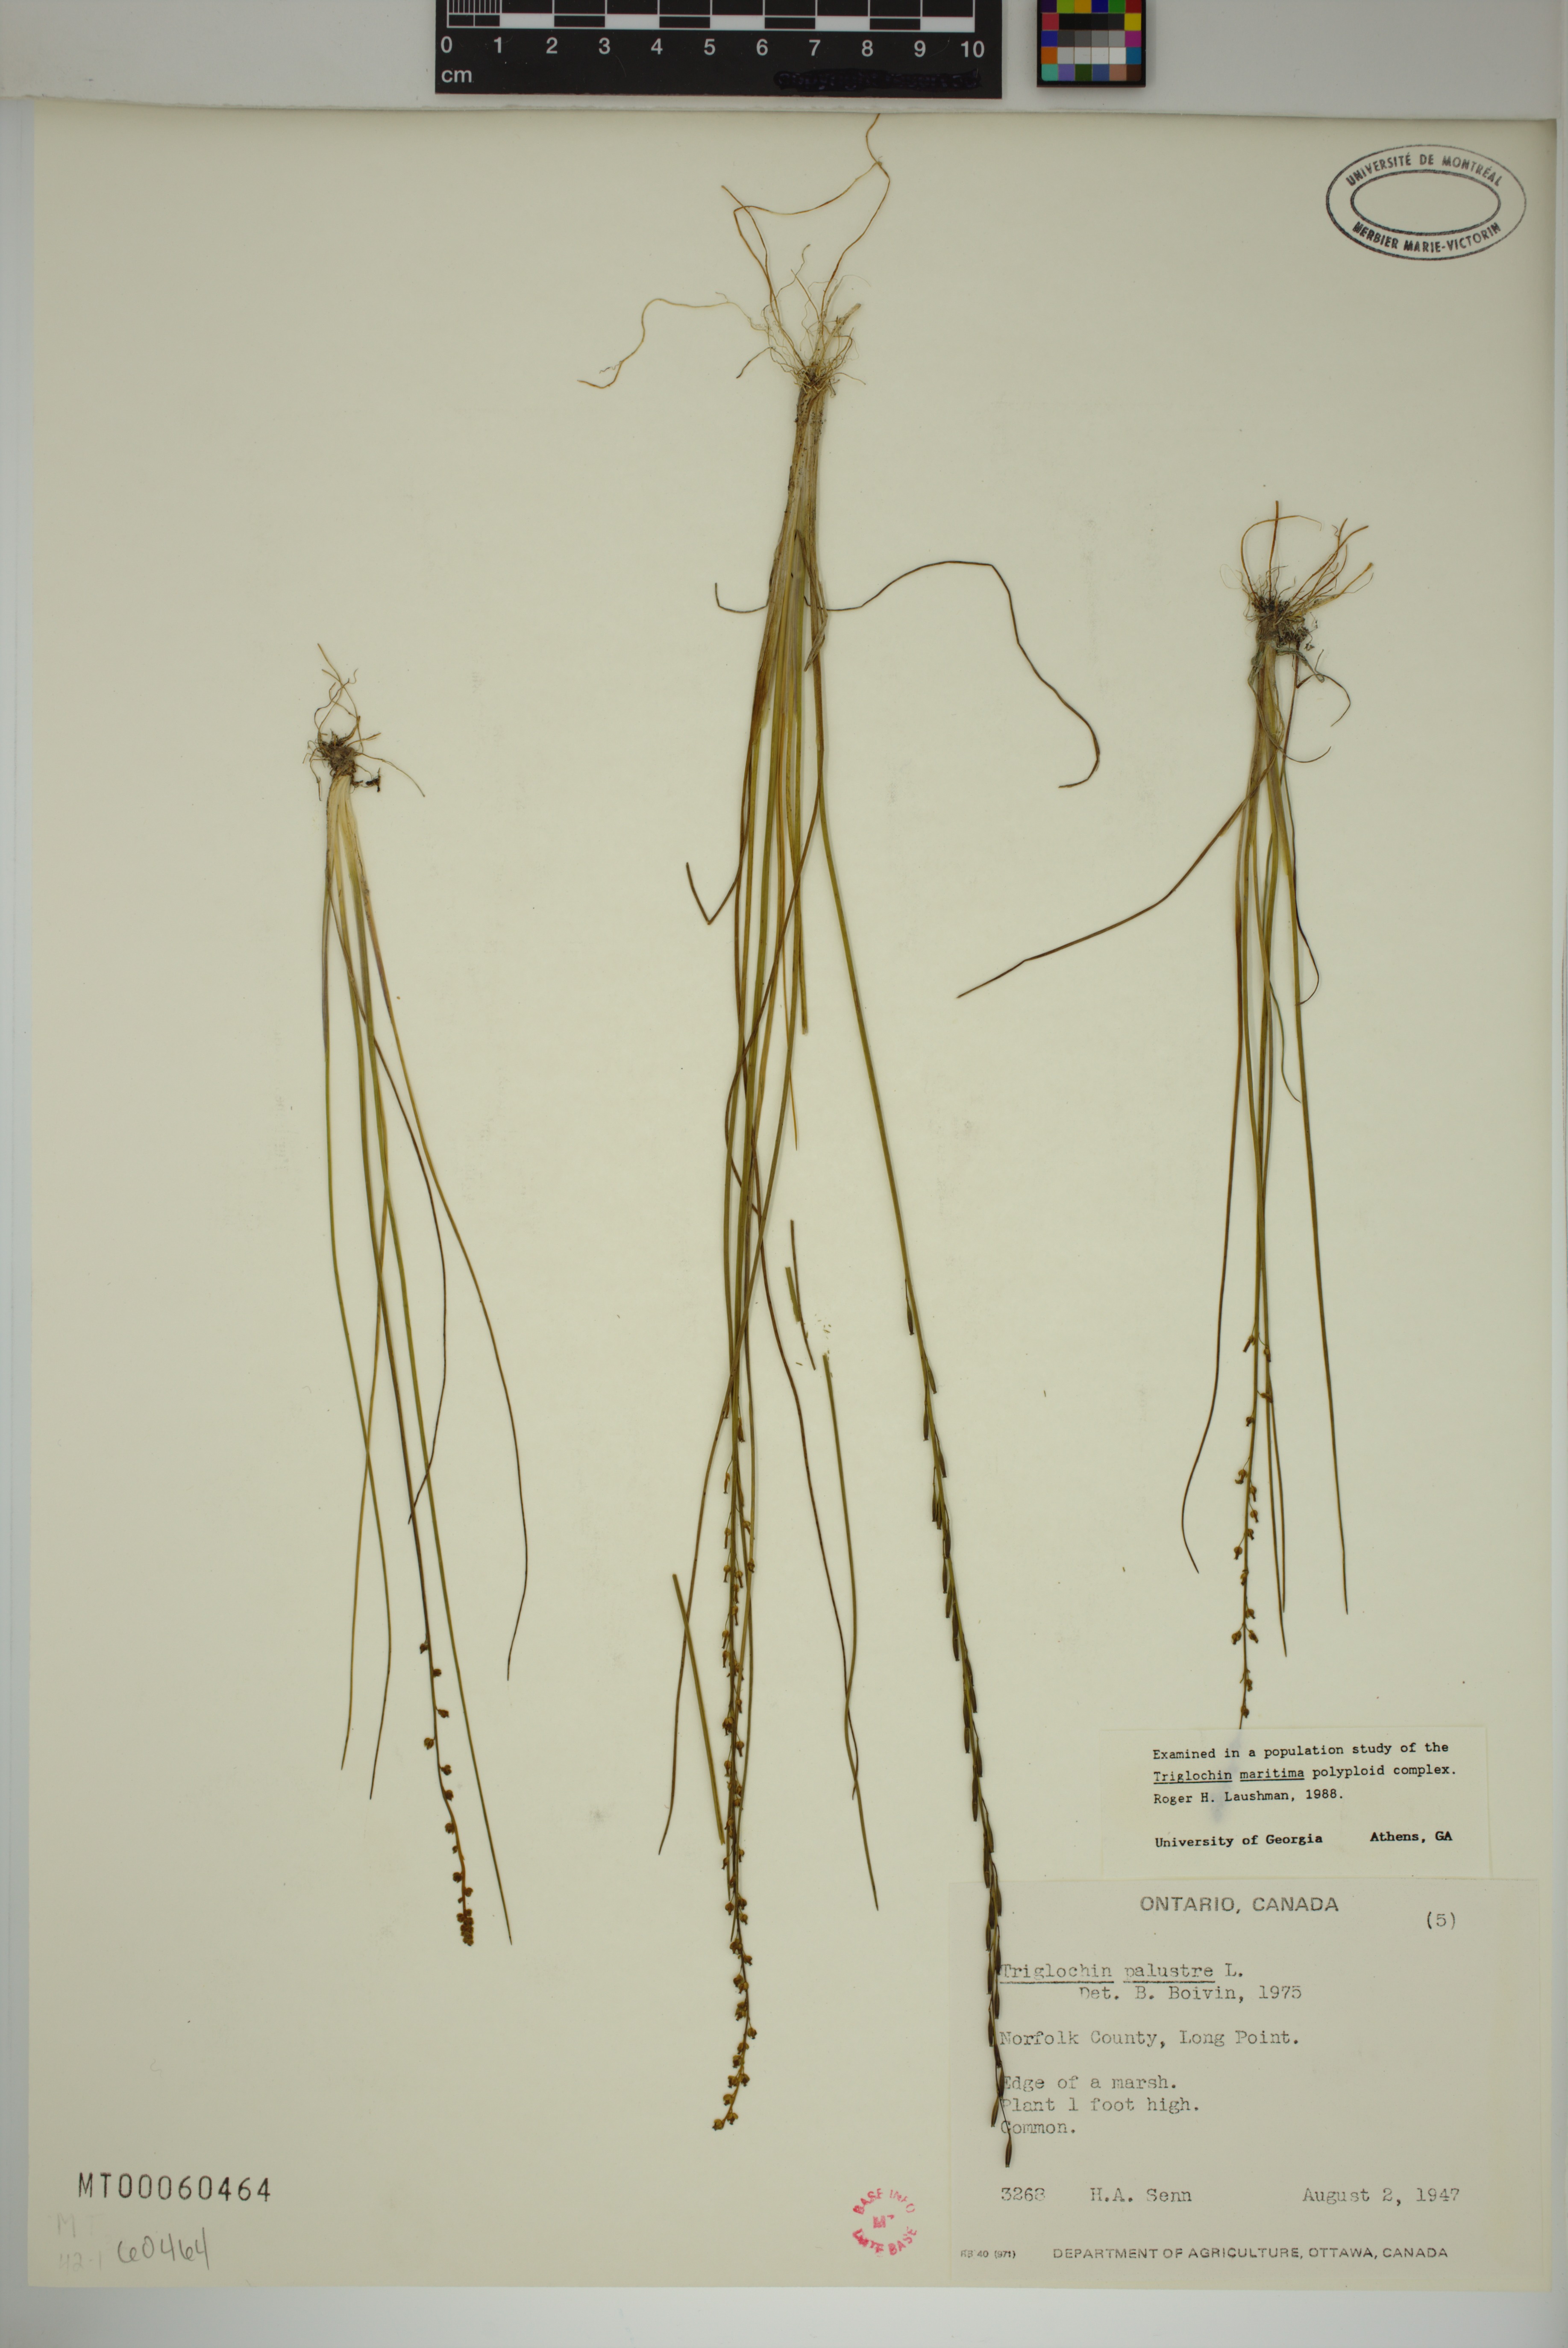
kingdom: Plantae
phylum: Tracheophyta
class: Liliopsida
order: Alismatales
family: Juncaginaceae
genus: Triglochin
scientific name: Triglochin palustris
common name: Marsh arrowgrass
